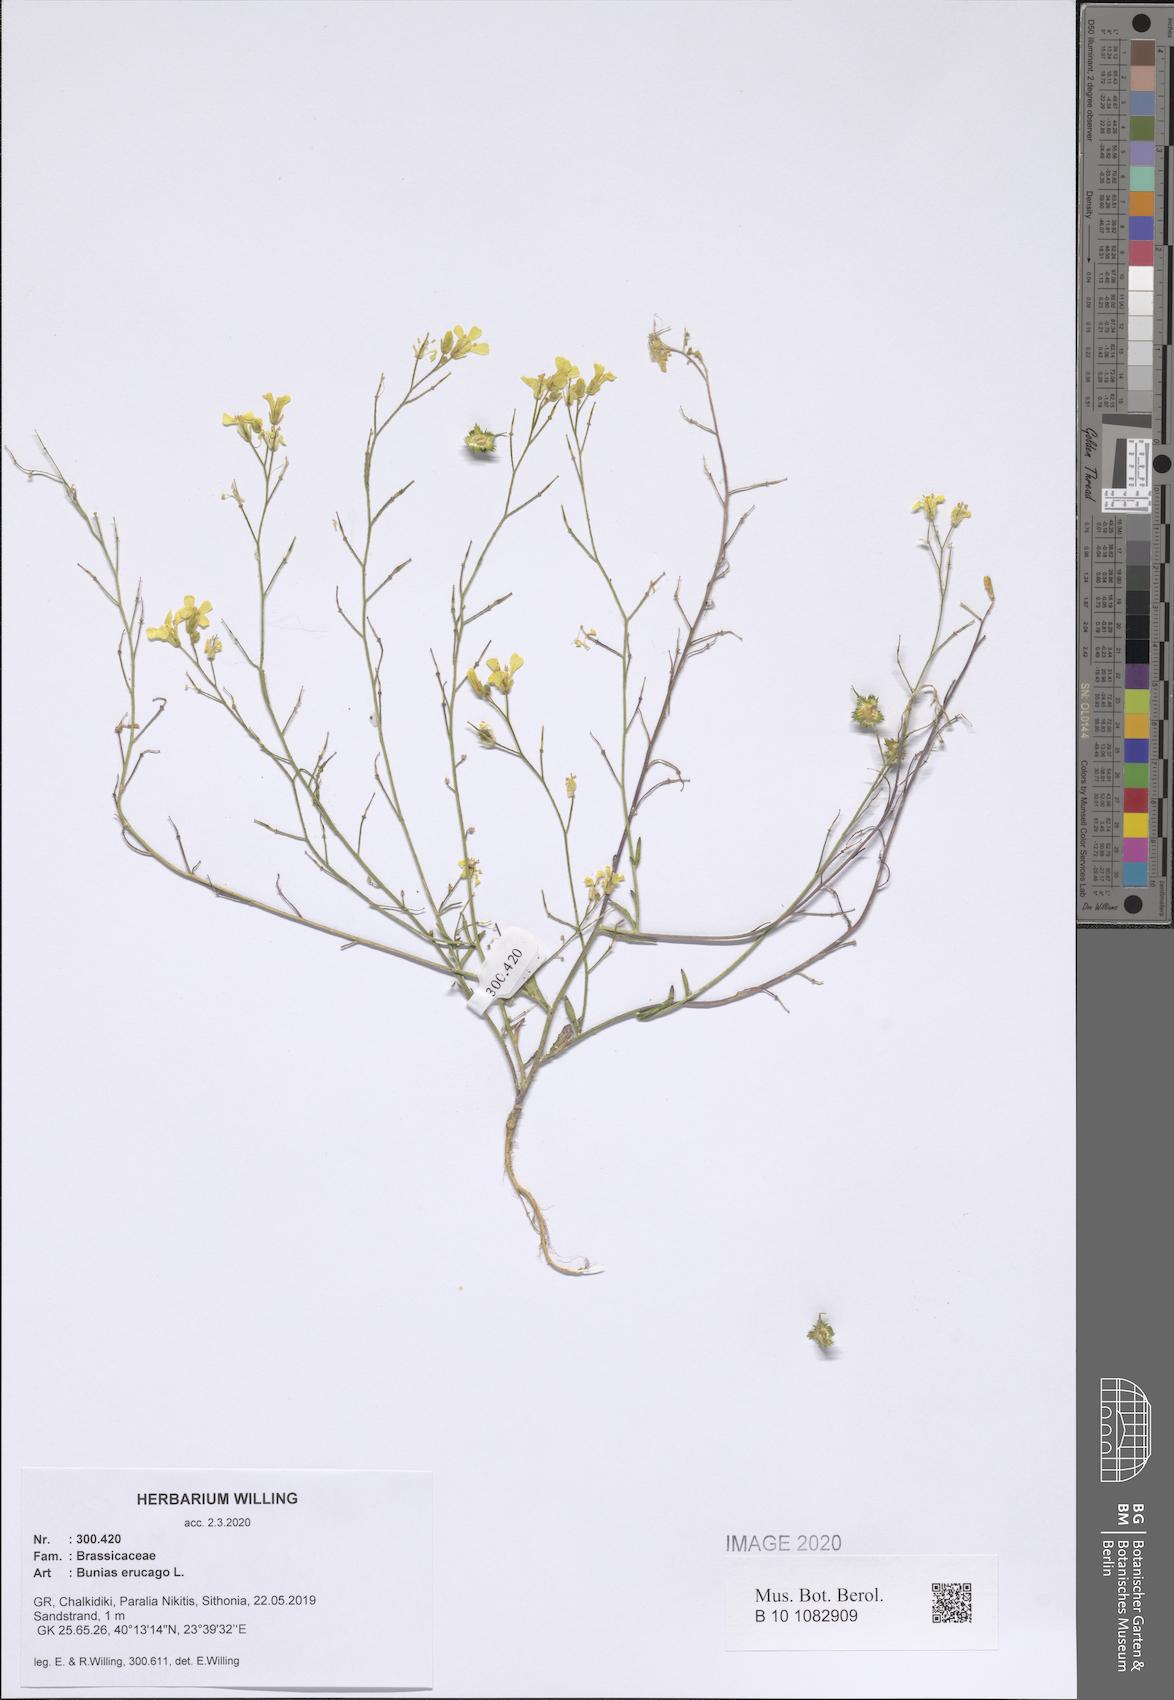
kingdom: Plantae
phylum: Tracheophyta
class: Magnoliopsida
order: Brassicales
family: Brassicaceae
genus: Bunias
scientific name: Bunias erucago
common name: Southern warty-cabbage
